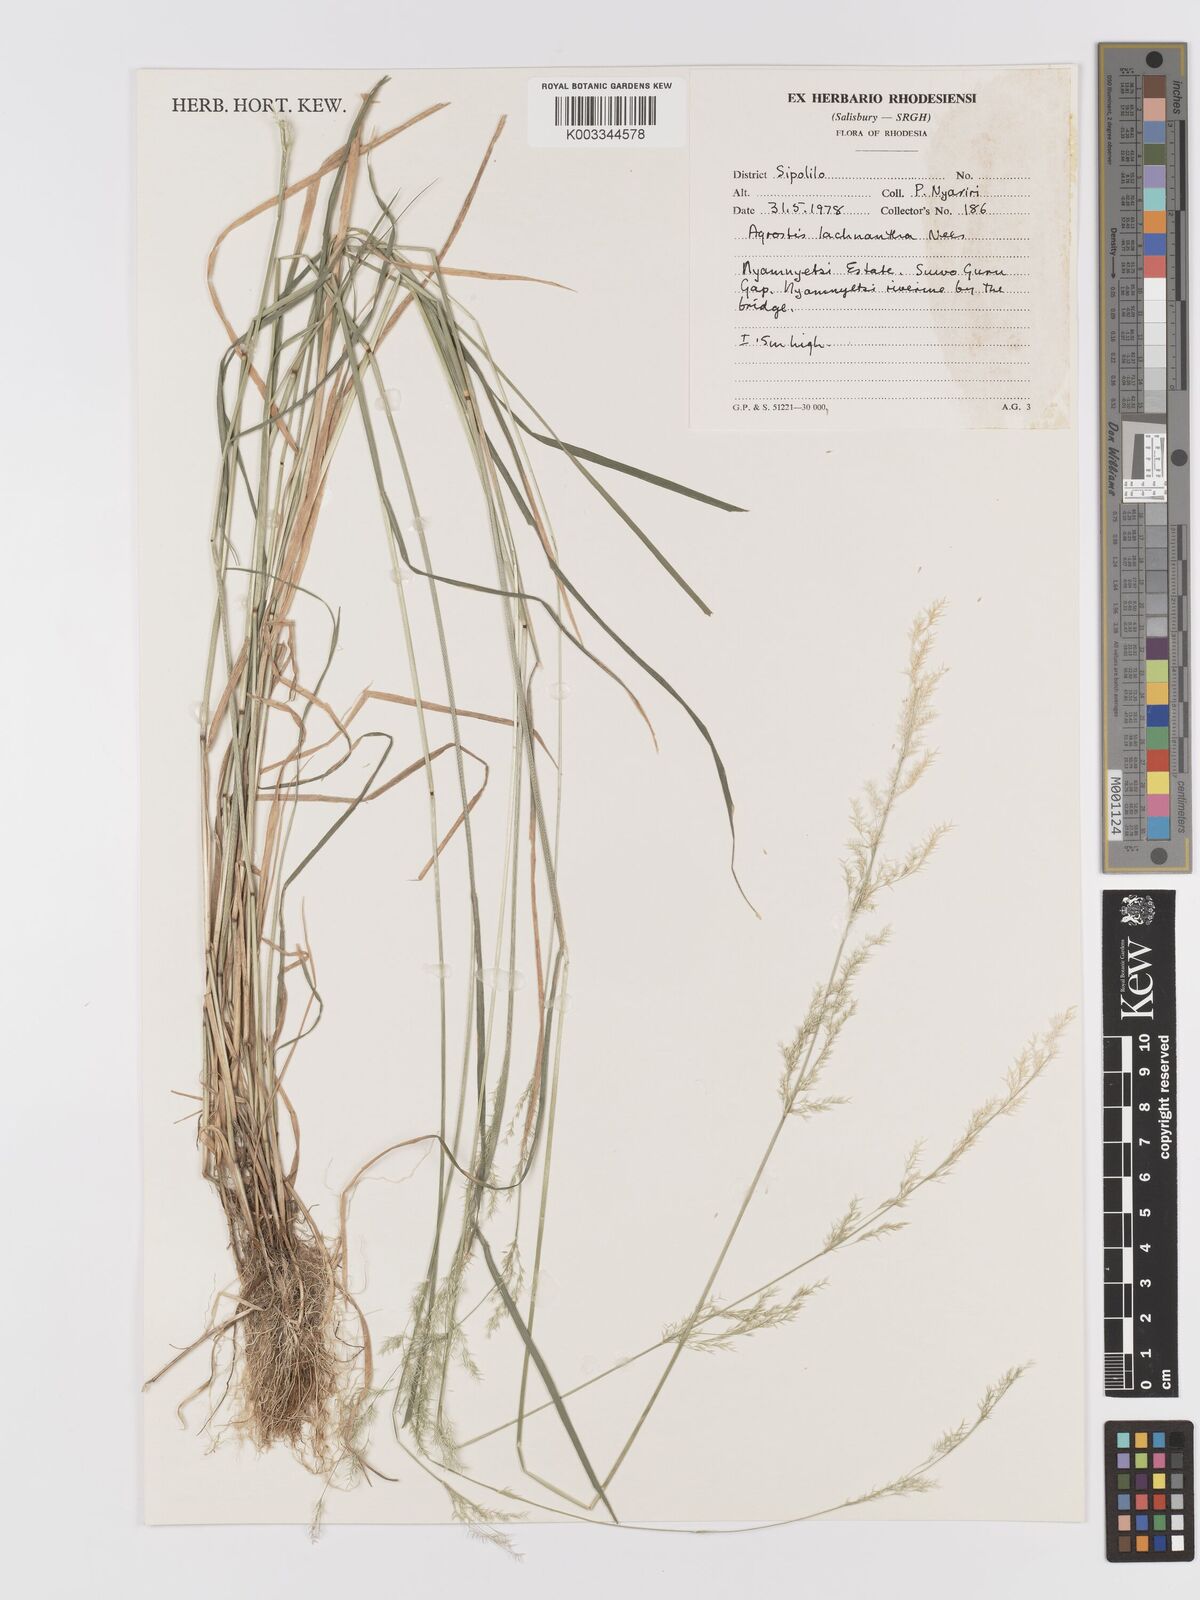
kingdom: Plantae
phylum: Tracheophyta
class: Liliopsida
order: Poales
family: Poaceae
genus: Lachnagrostis
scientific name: Lachnagrostis lachnantha
